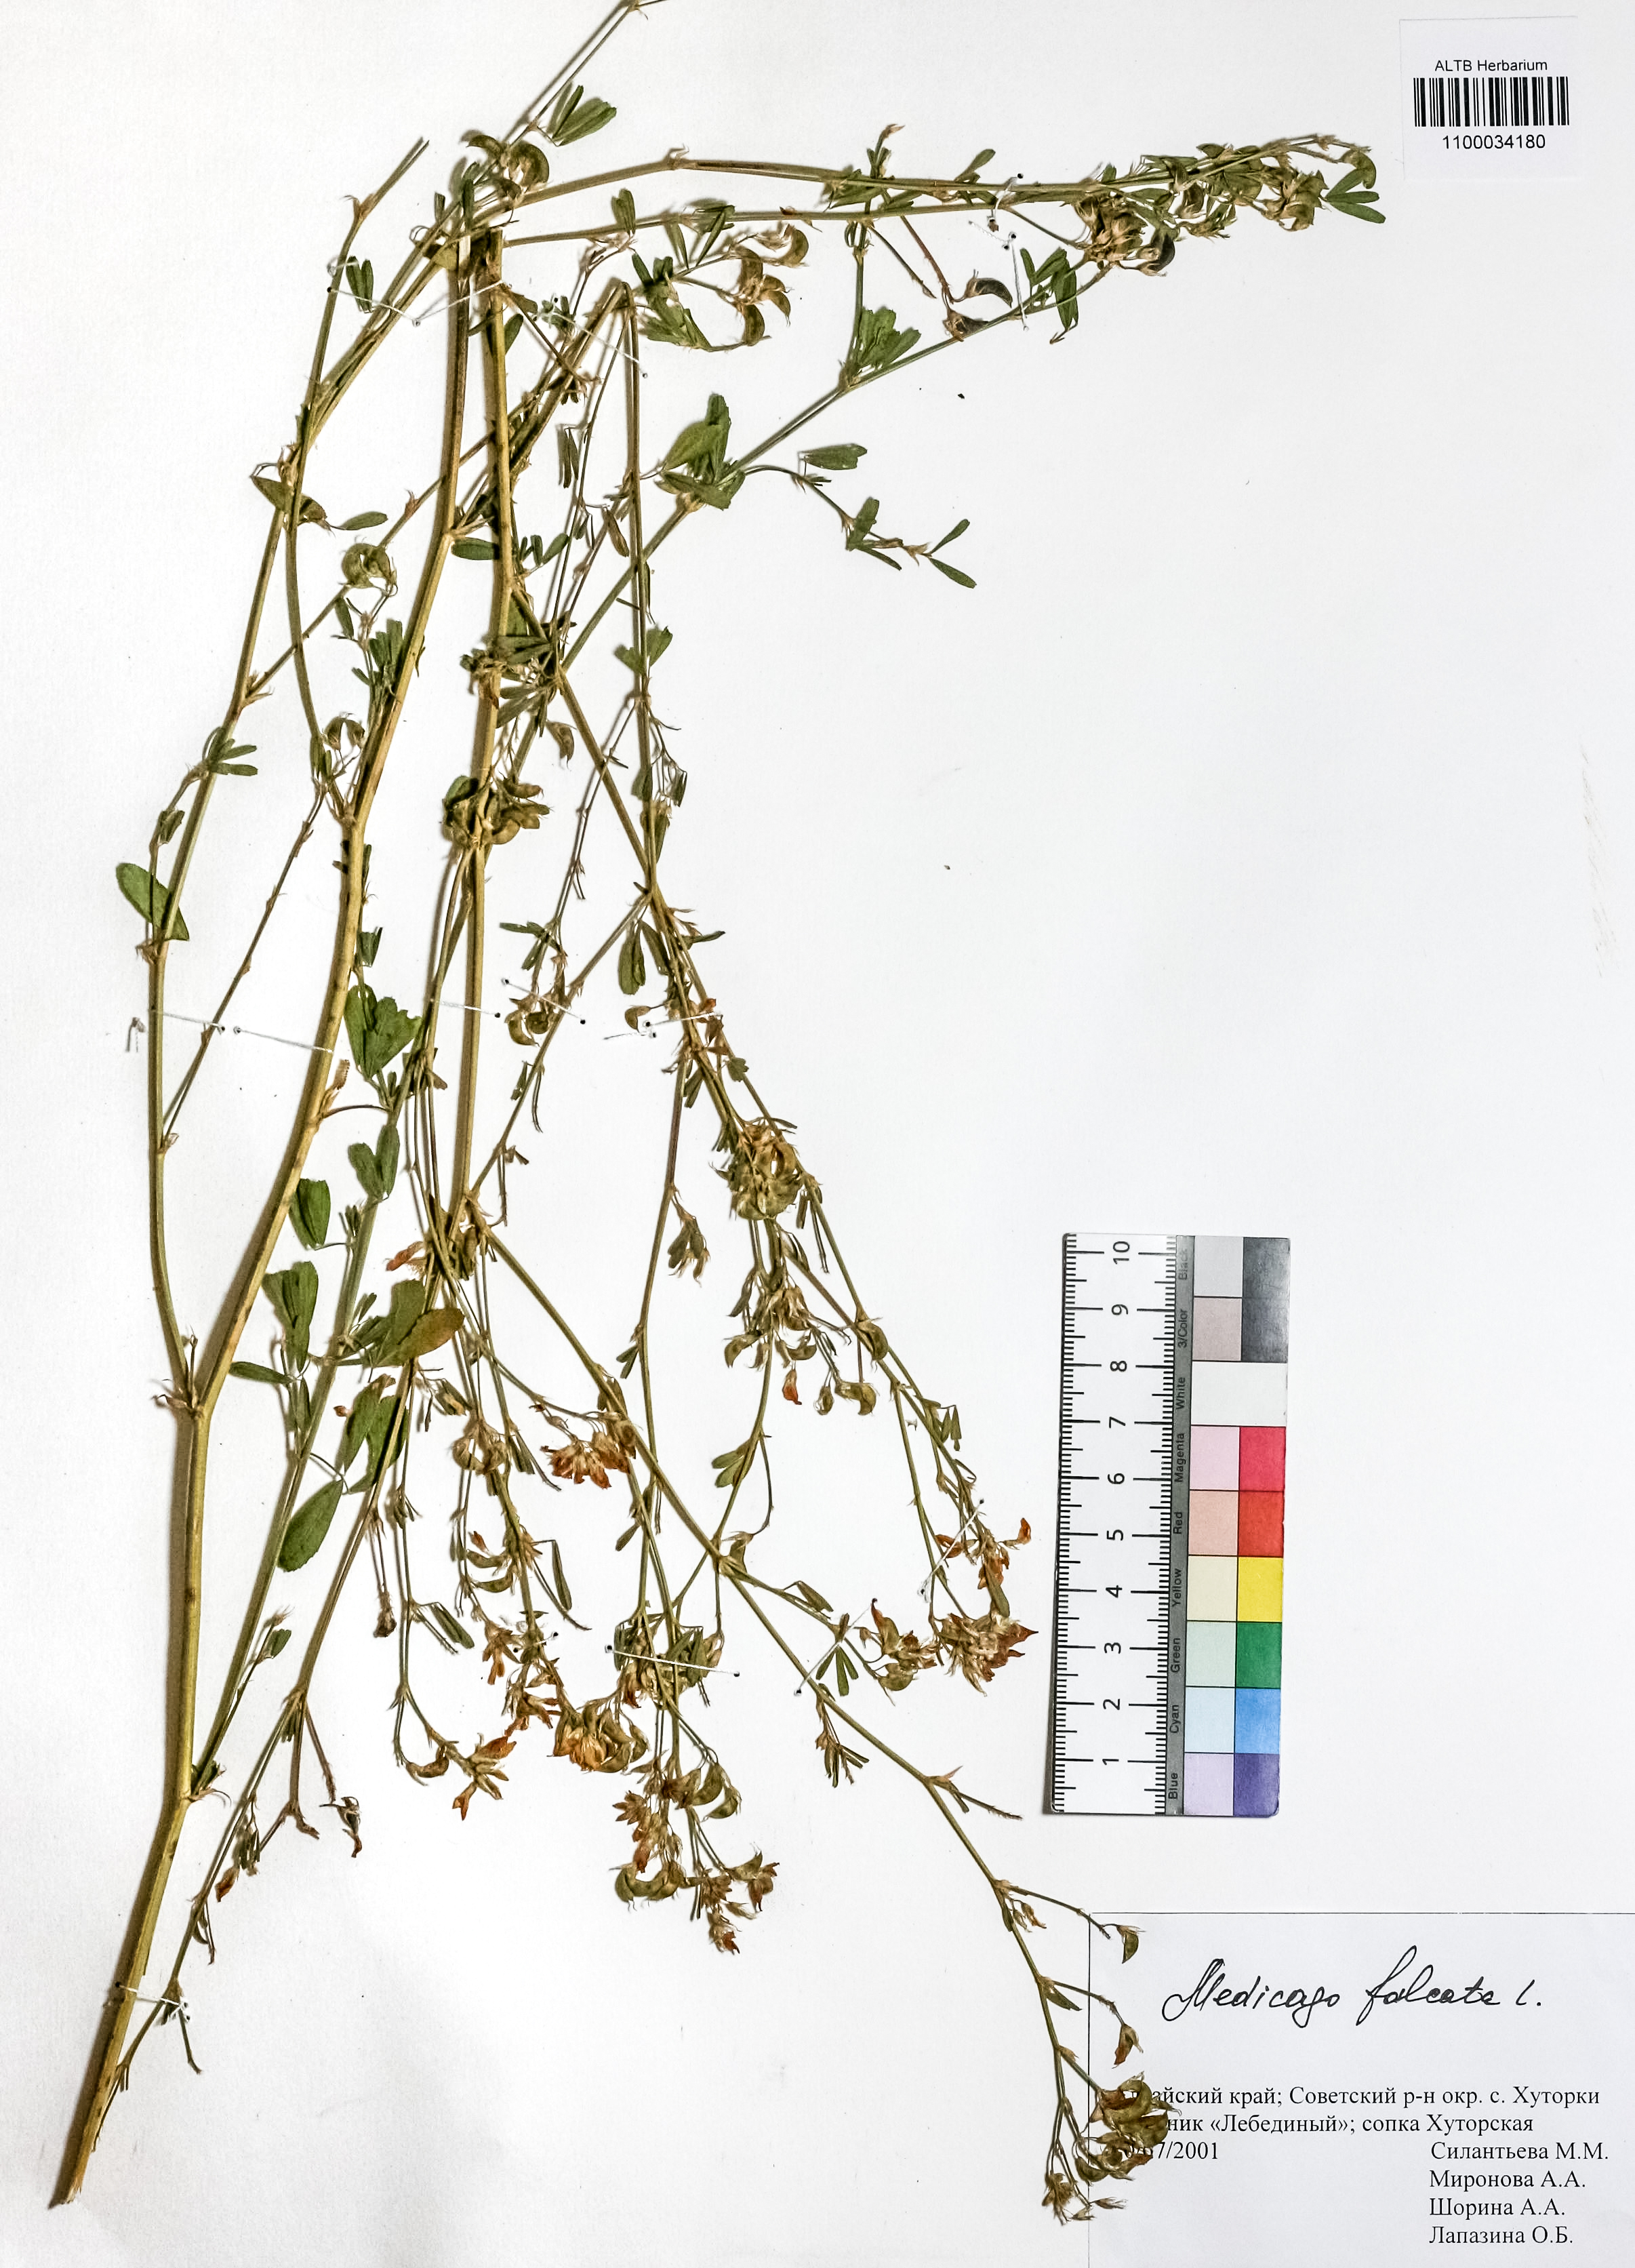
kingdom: Plantae
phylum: Tracheophyta
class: Magnoliopsida
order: Fabales
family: Fabaceae
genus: Medicago
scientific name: Medicago falcata
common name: Sickle medick
